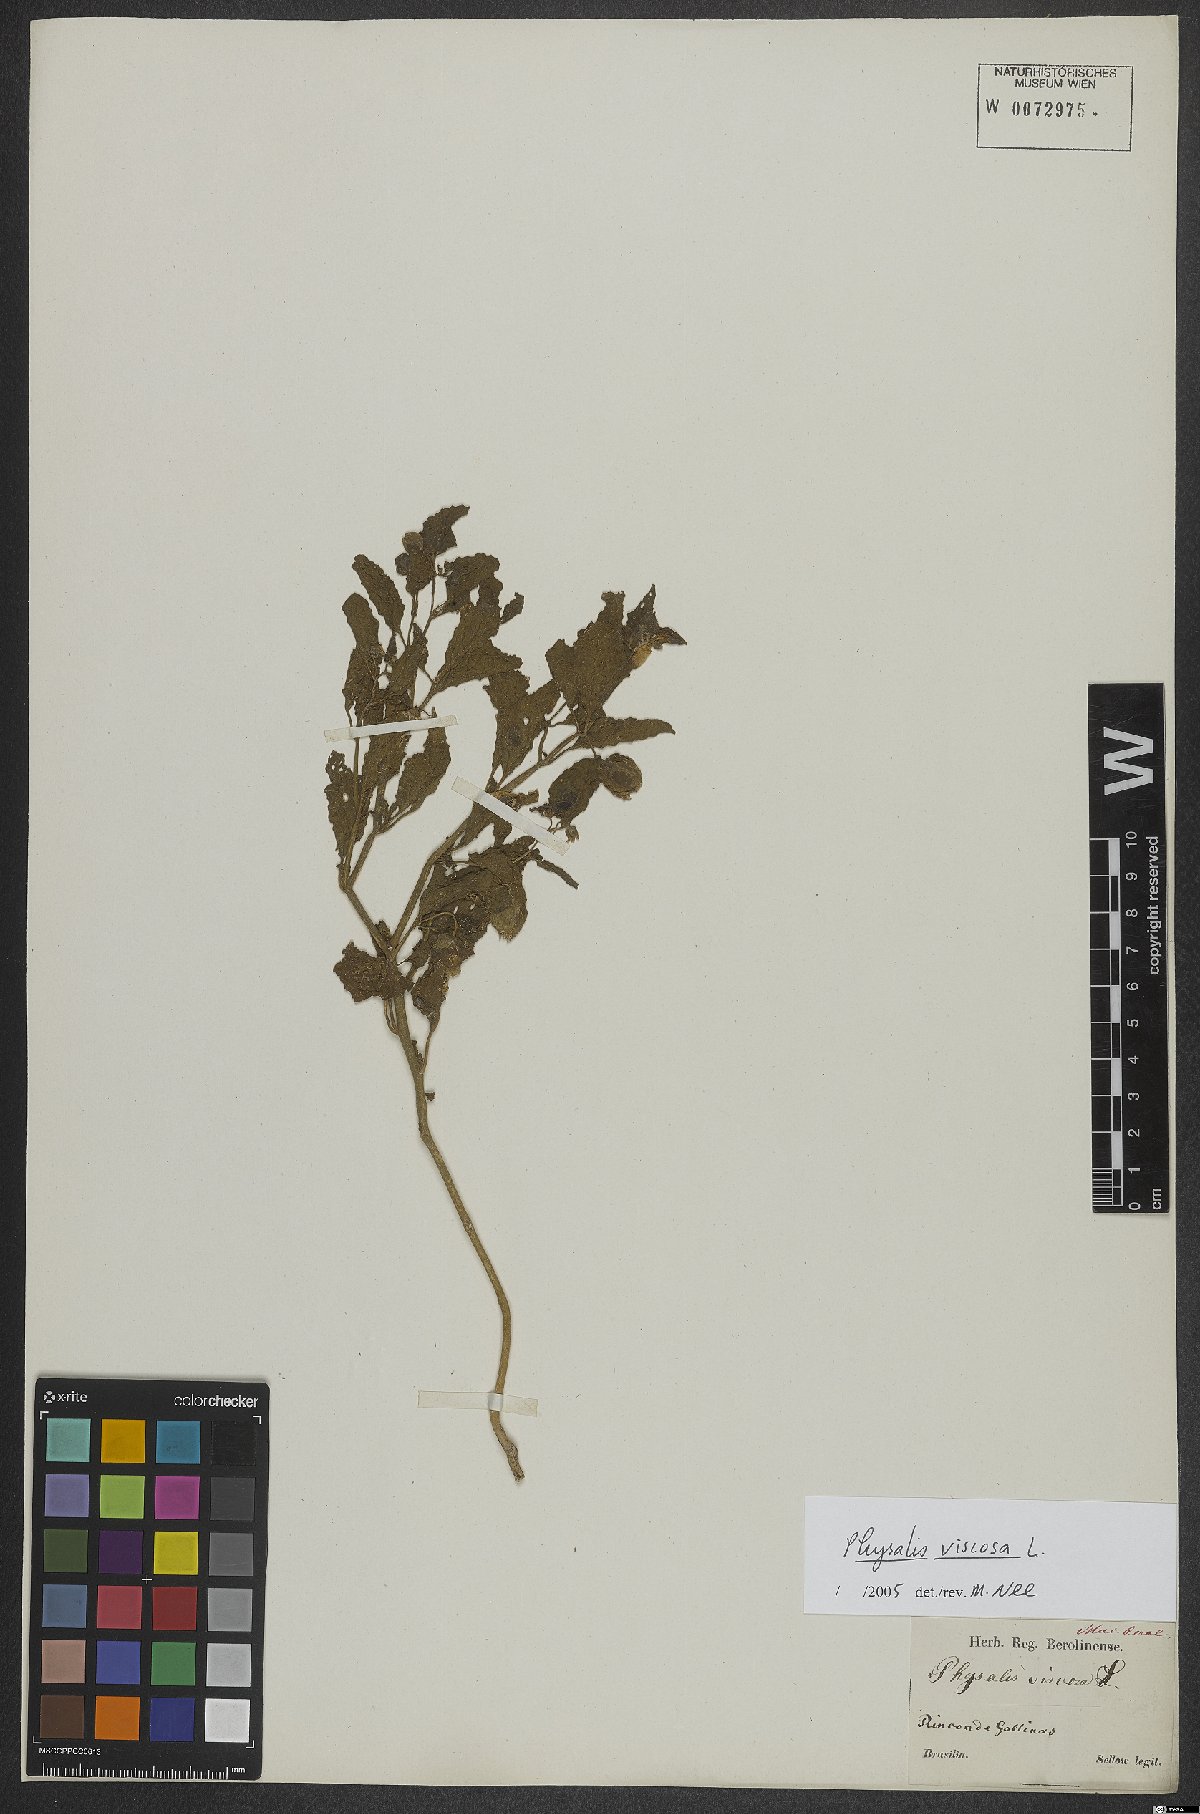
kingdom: Plantae
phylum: Tracheophyta
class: Magnoliopsida
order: Solanales
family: Solanaceae
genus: Physalis
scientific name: Physalis viscosa
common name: Stellate ground-cherry
